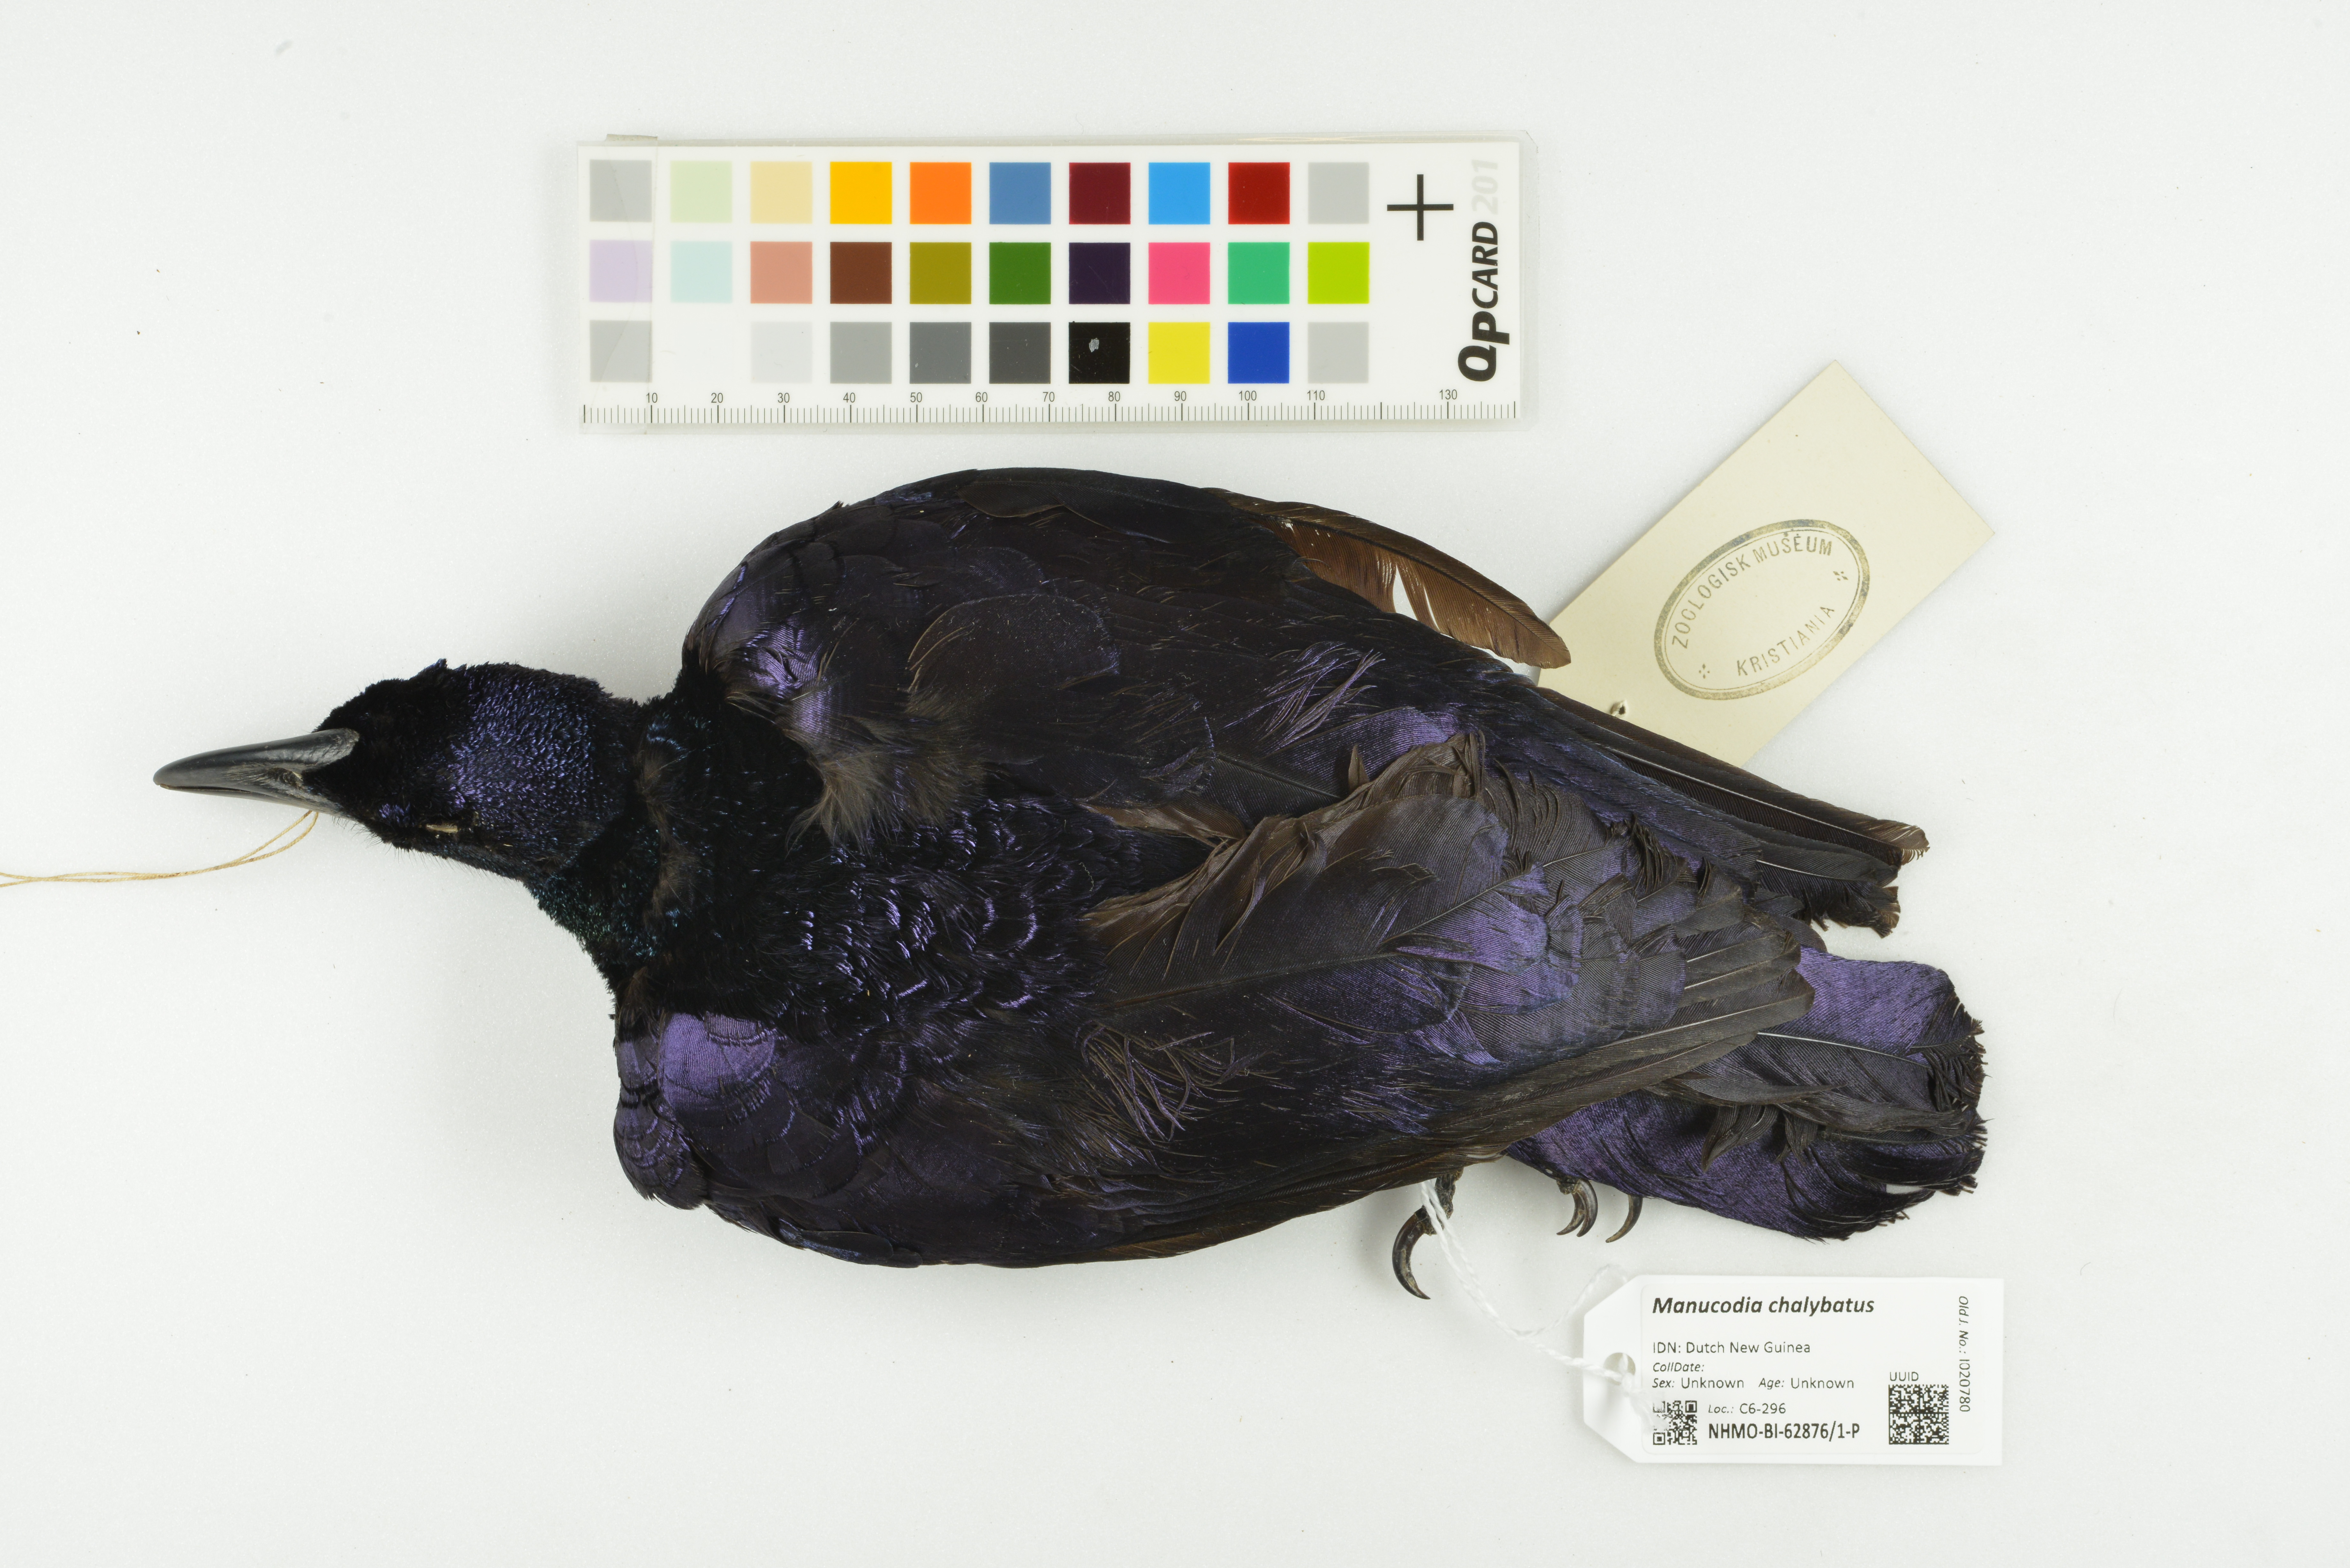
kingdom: Animalia
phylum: Chordata
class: Aves
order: Passeriformes
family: Paradisaeidae
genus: Manucodia
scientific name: Manucodia chalybatus
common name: Crinkle-collared manucode
